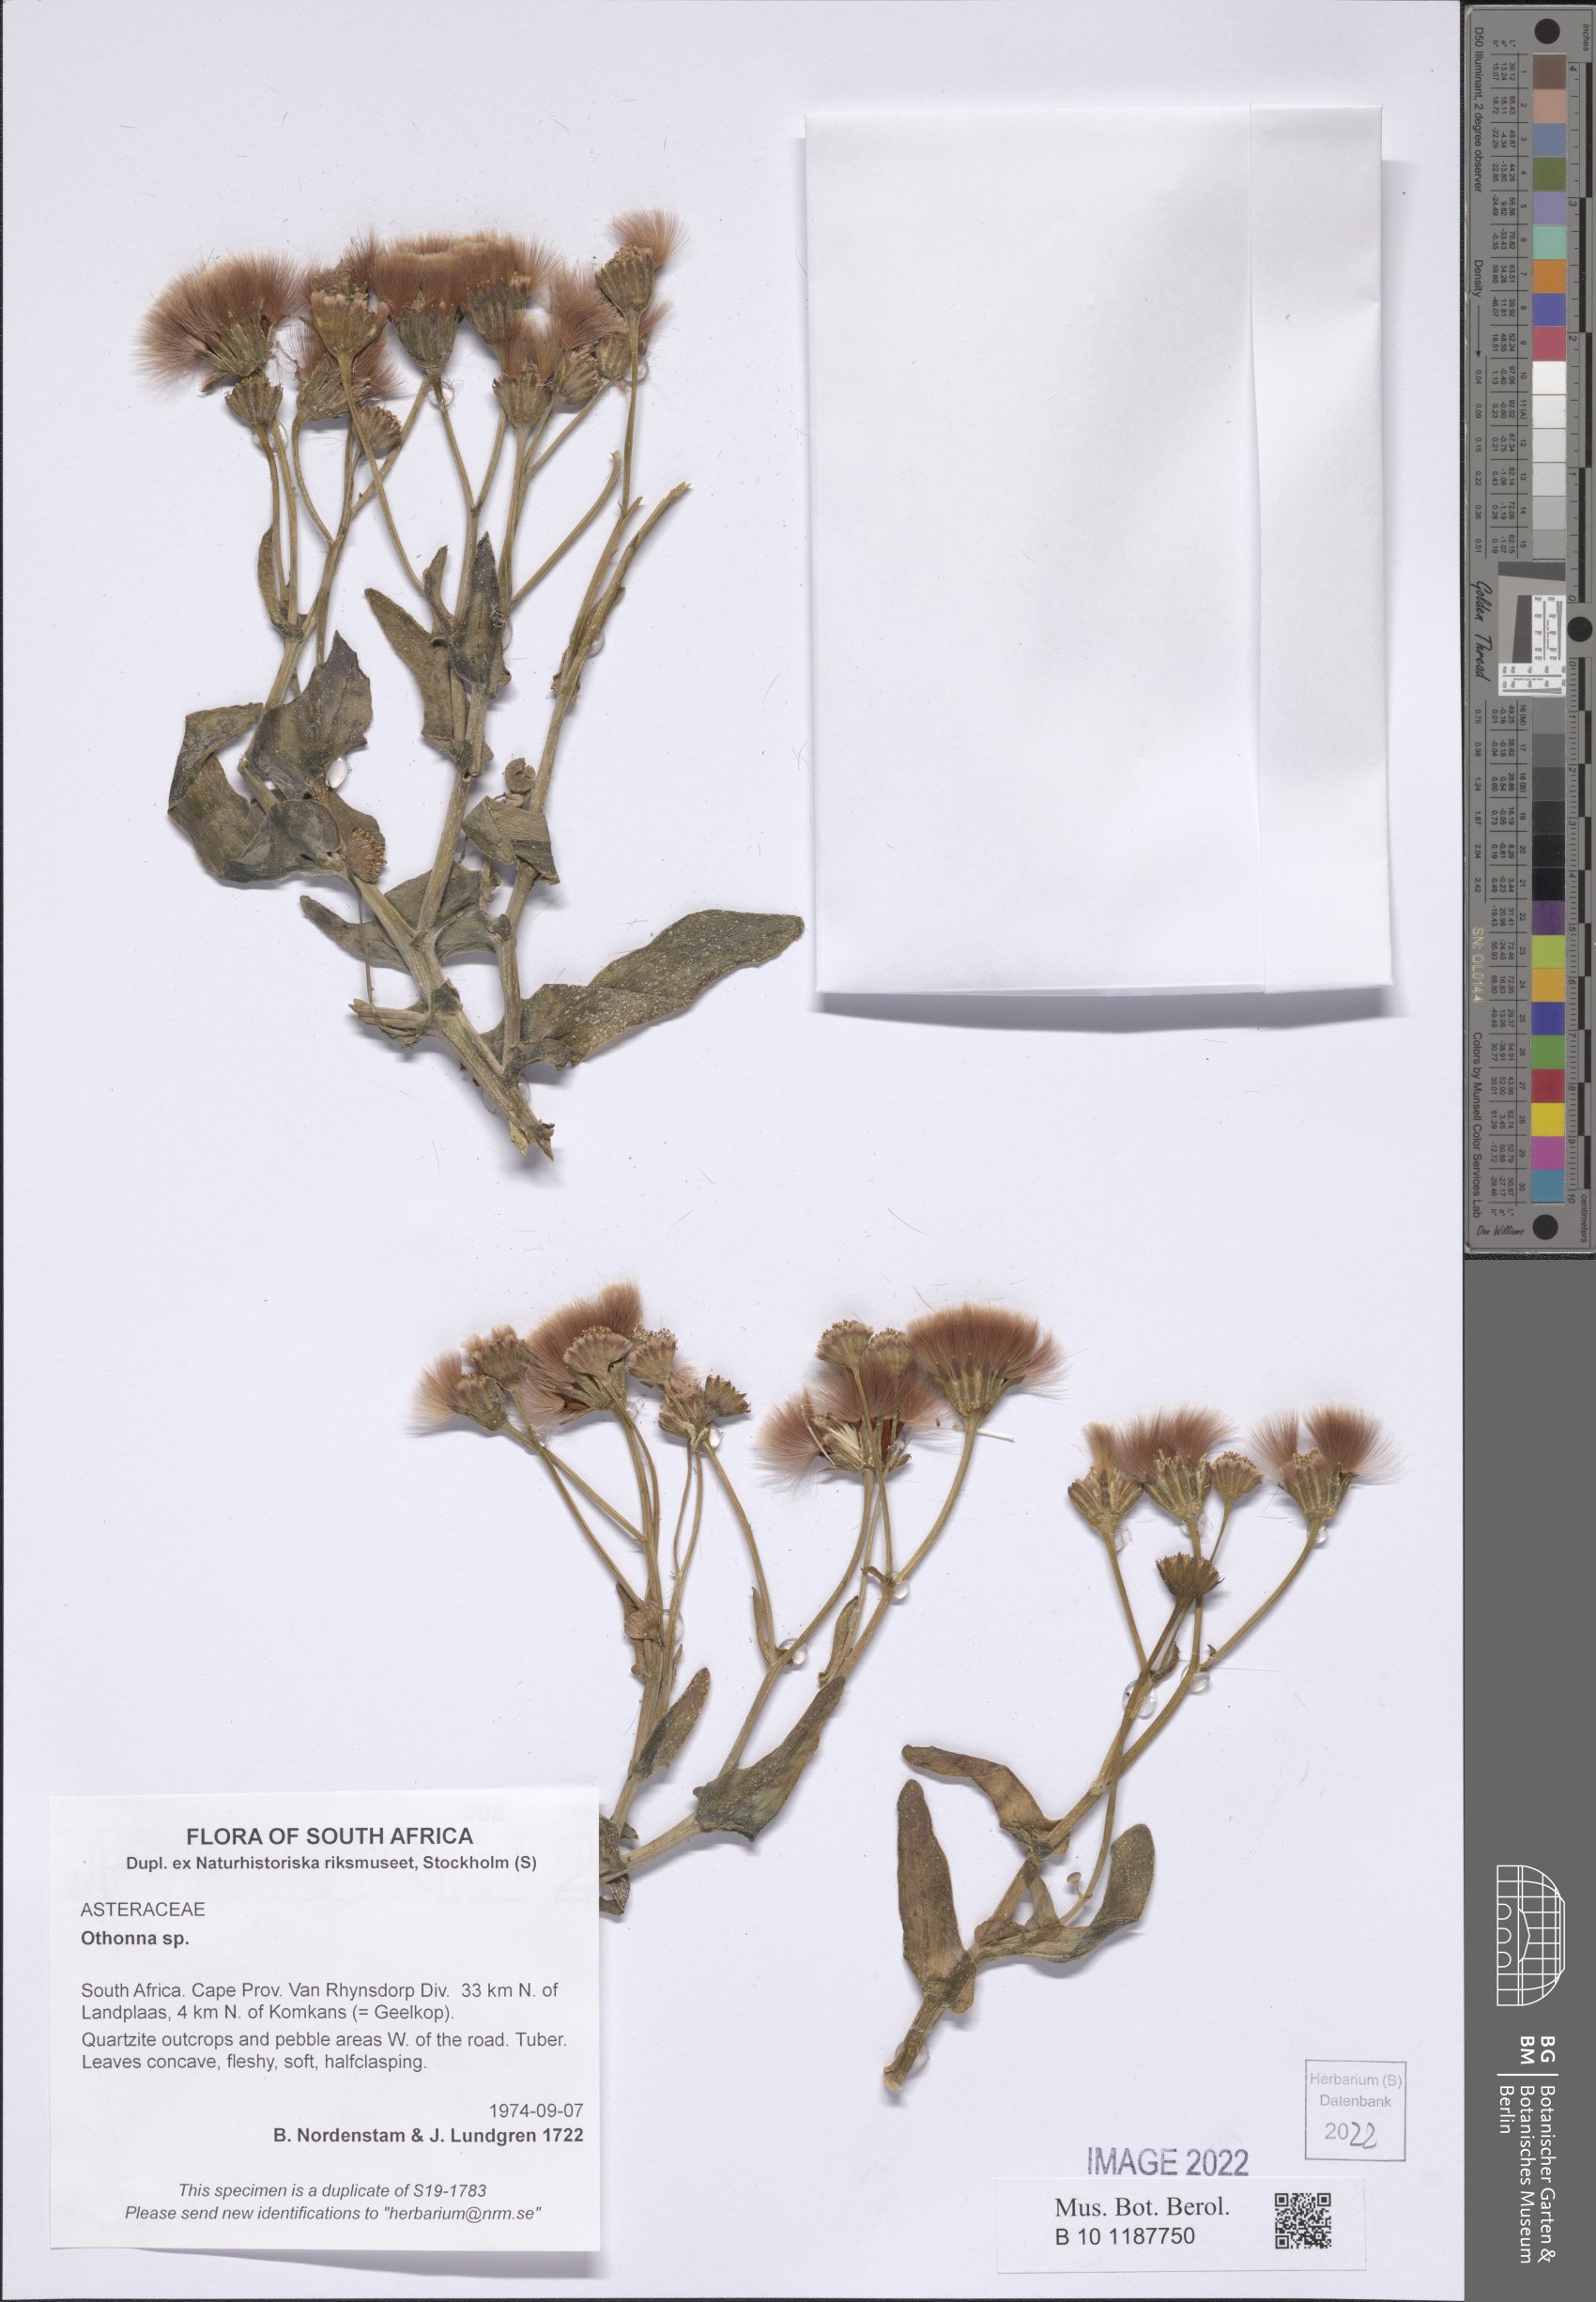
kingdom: Plantae
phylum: Tracheophyta
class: Magnoliopsida
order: Asterales
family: Asteraceae
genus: Othonna
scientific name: Othonna
